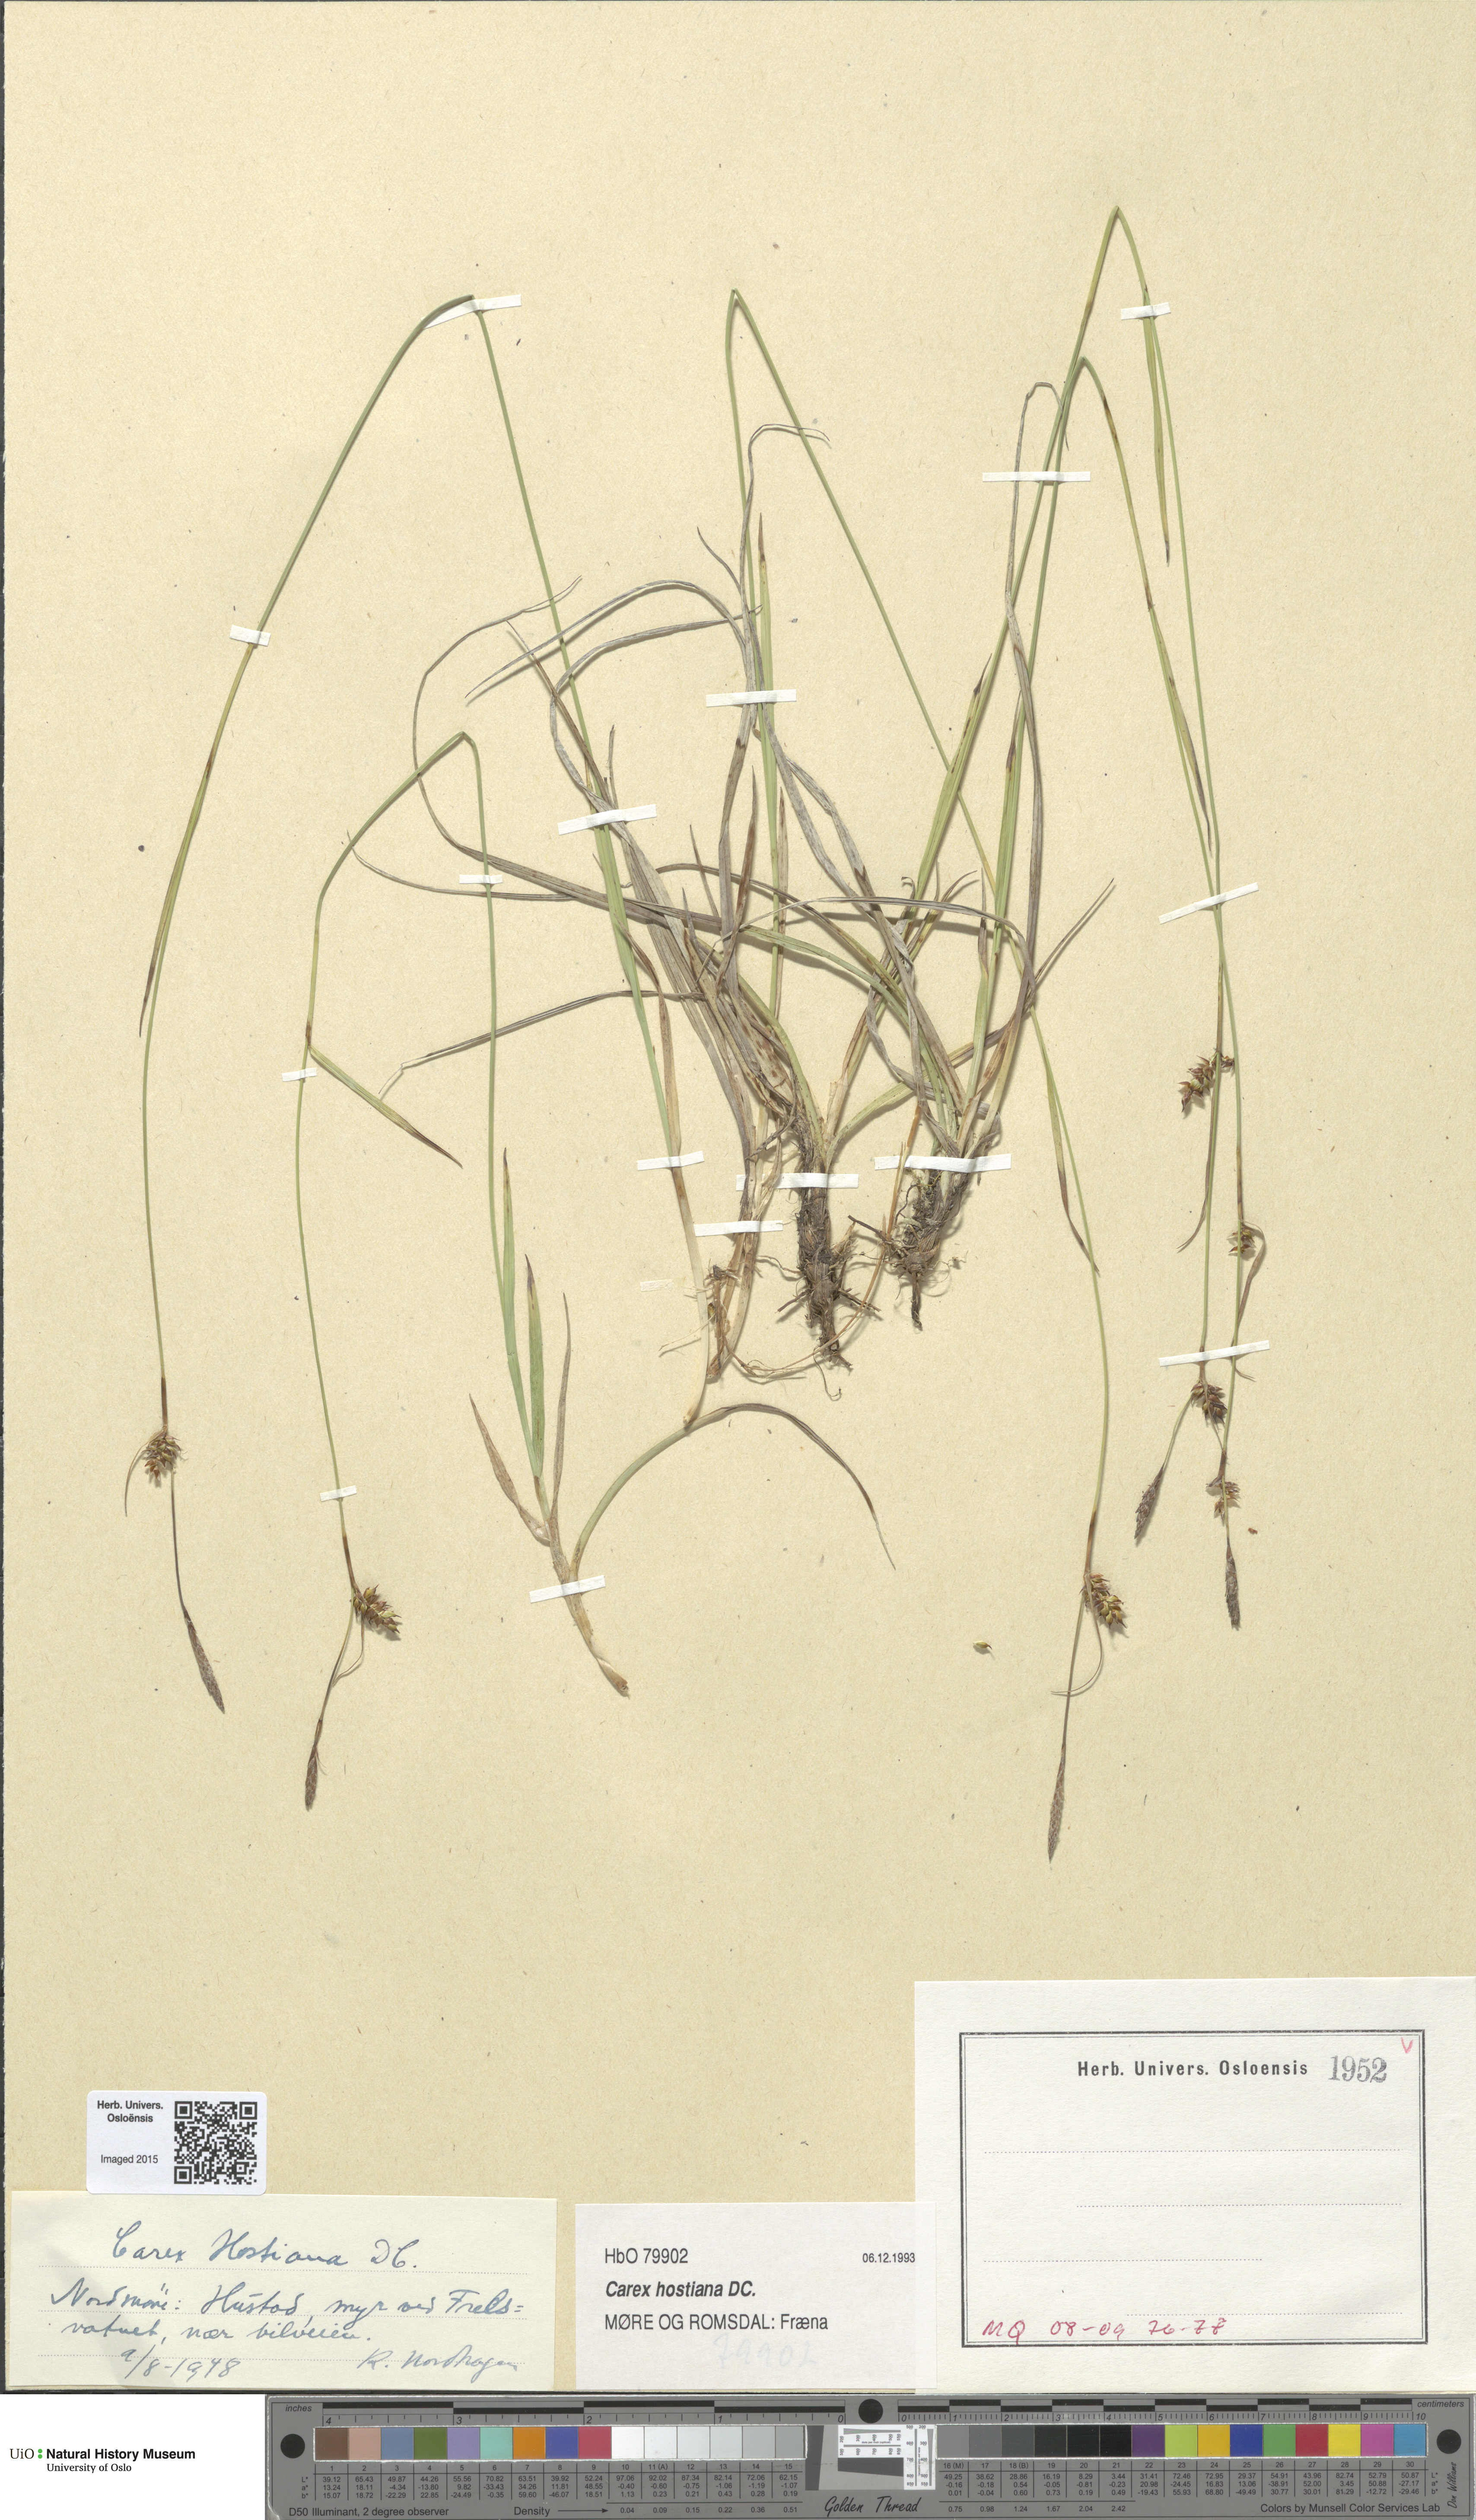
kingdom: Plantae
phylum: Tracheophyta
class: Liliopsida
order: Poales
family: Cyperaceae
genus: Carex
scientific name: Carex hostiana
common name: Tawny sedge
